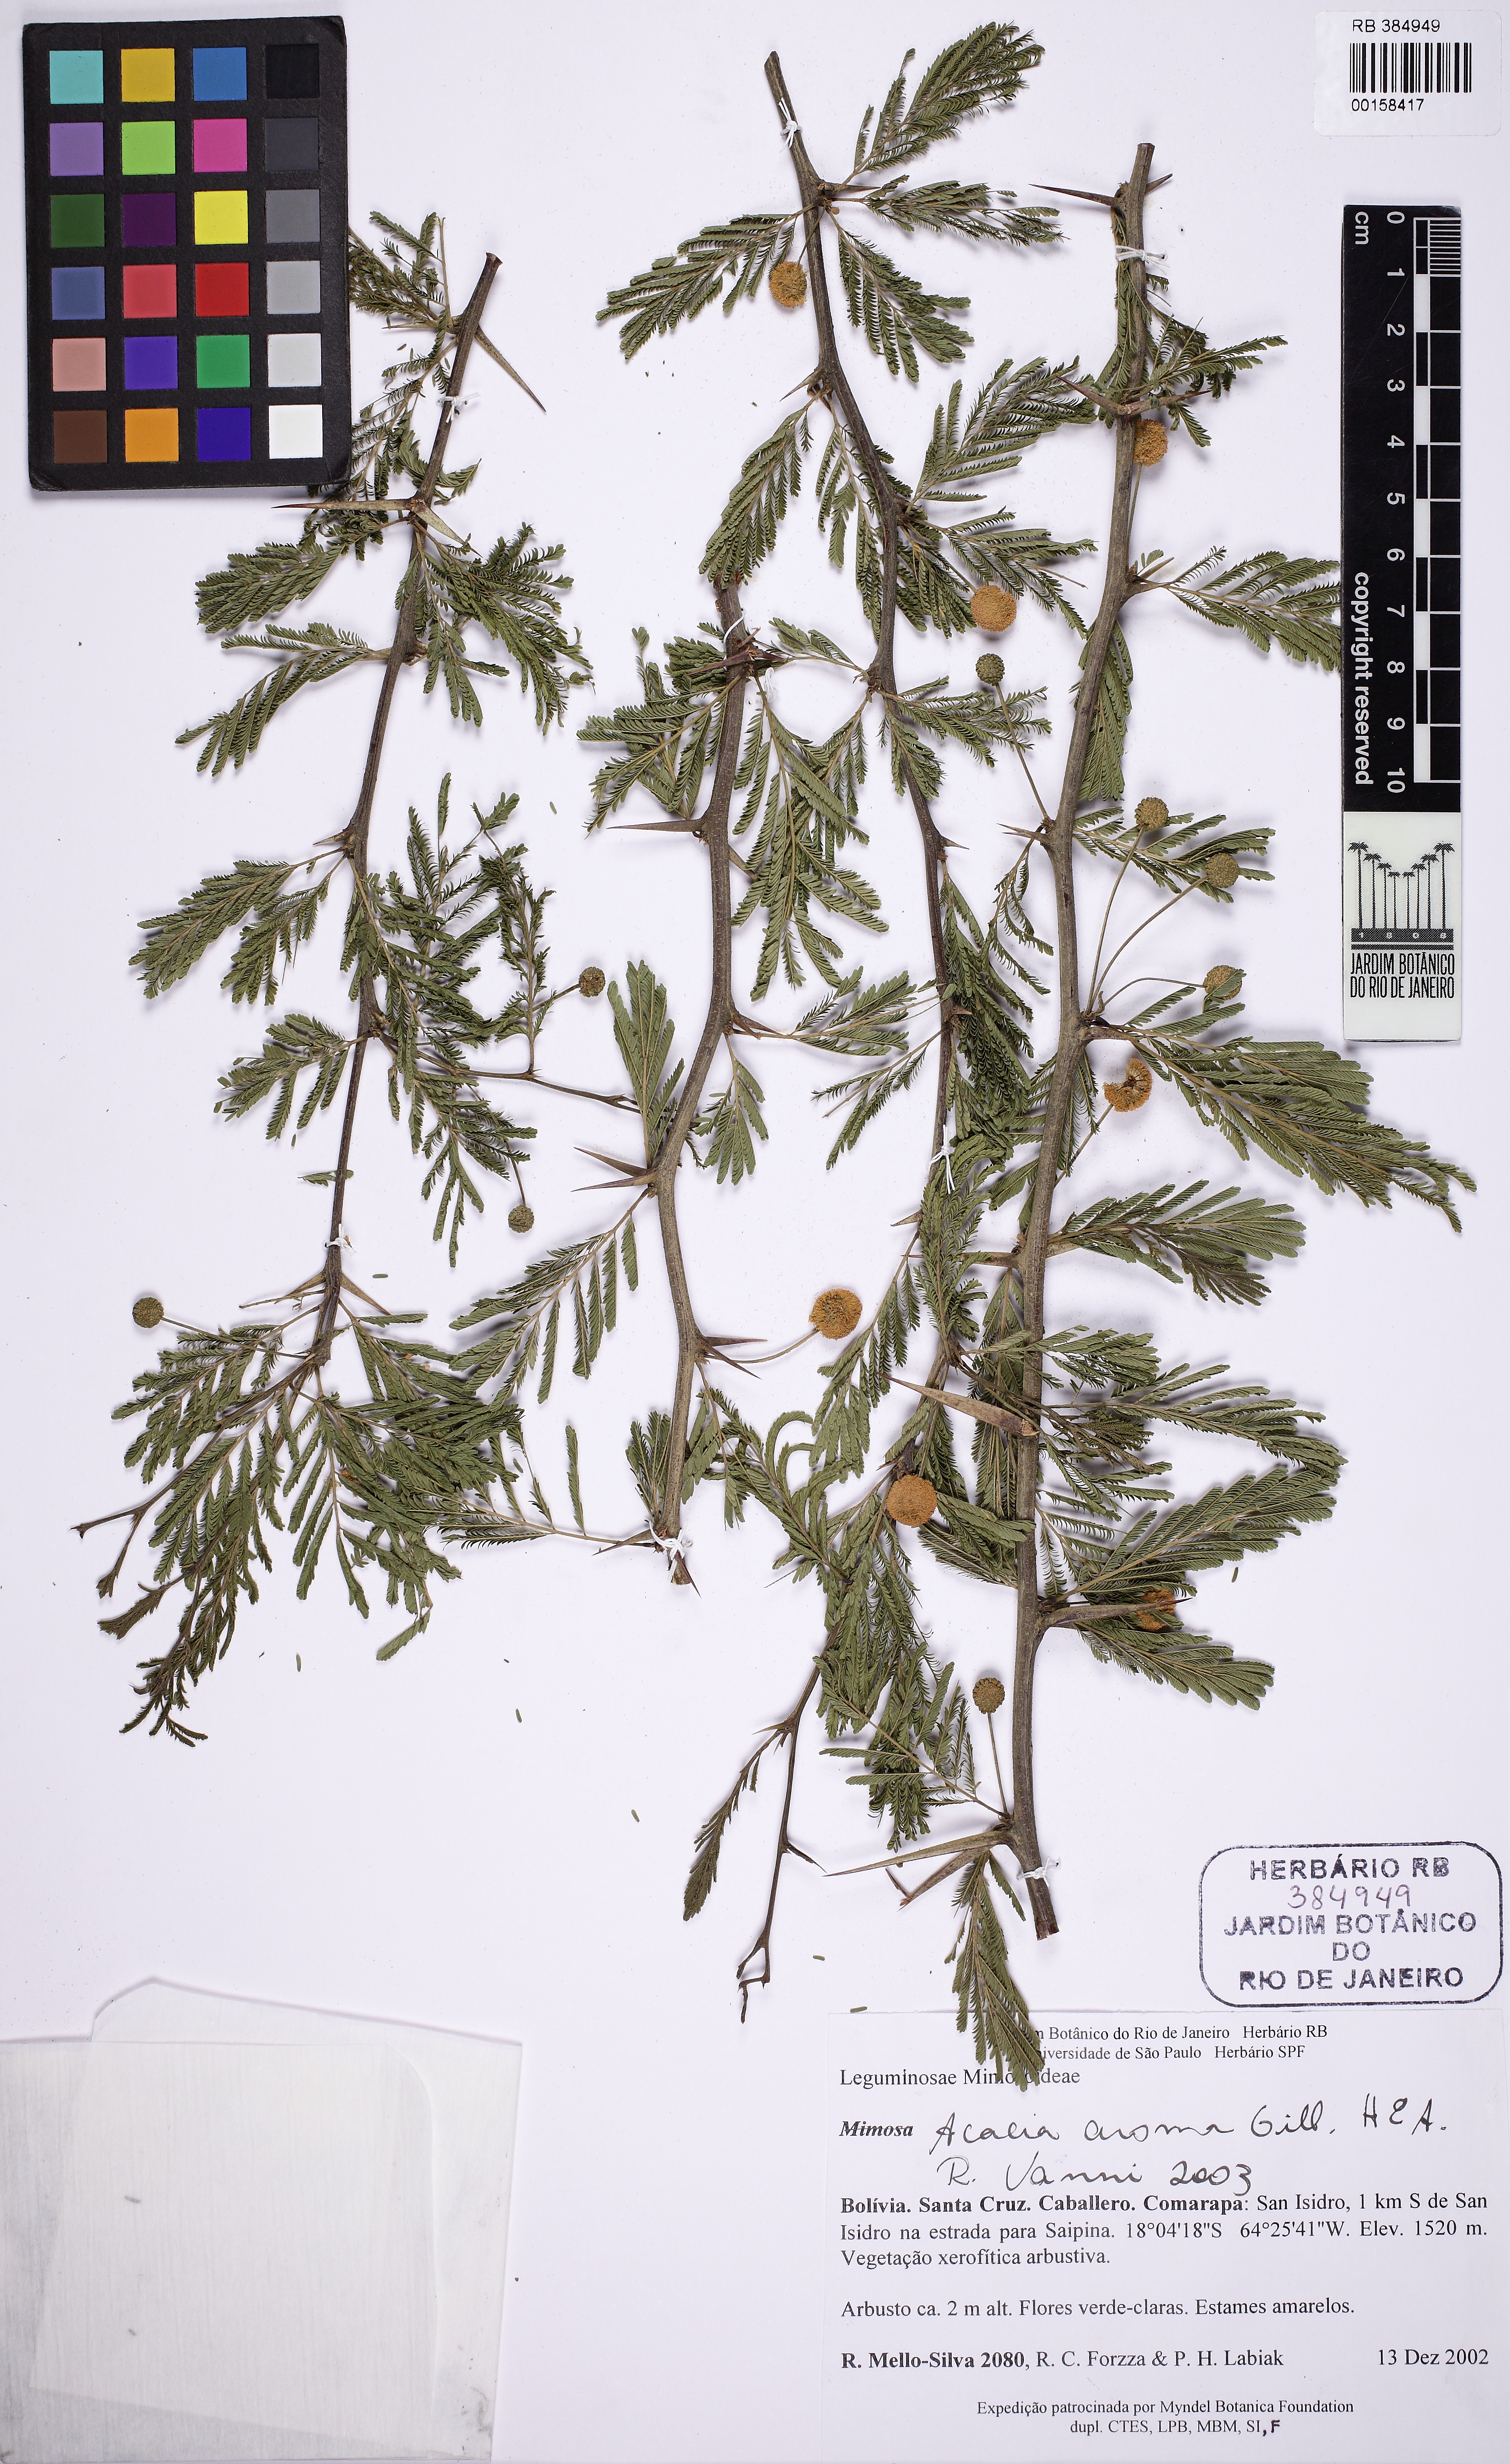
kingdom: Plantae
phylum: Tracheophyta
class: Magnoliopsida
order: Fabales
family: Fabaceae
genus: Vachellia
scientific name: Vachellia aroma
